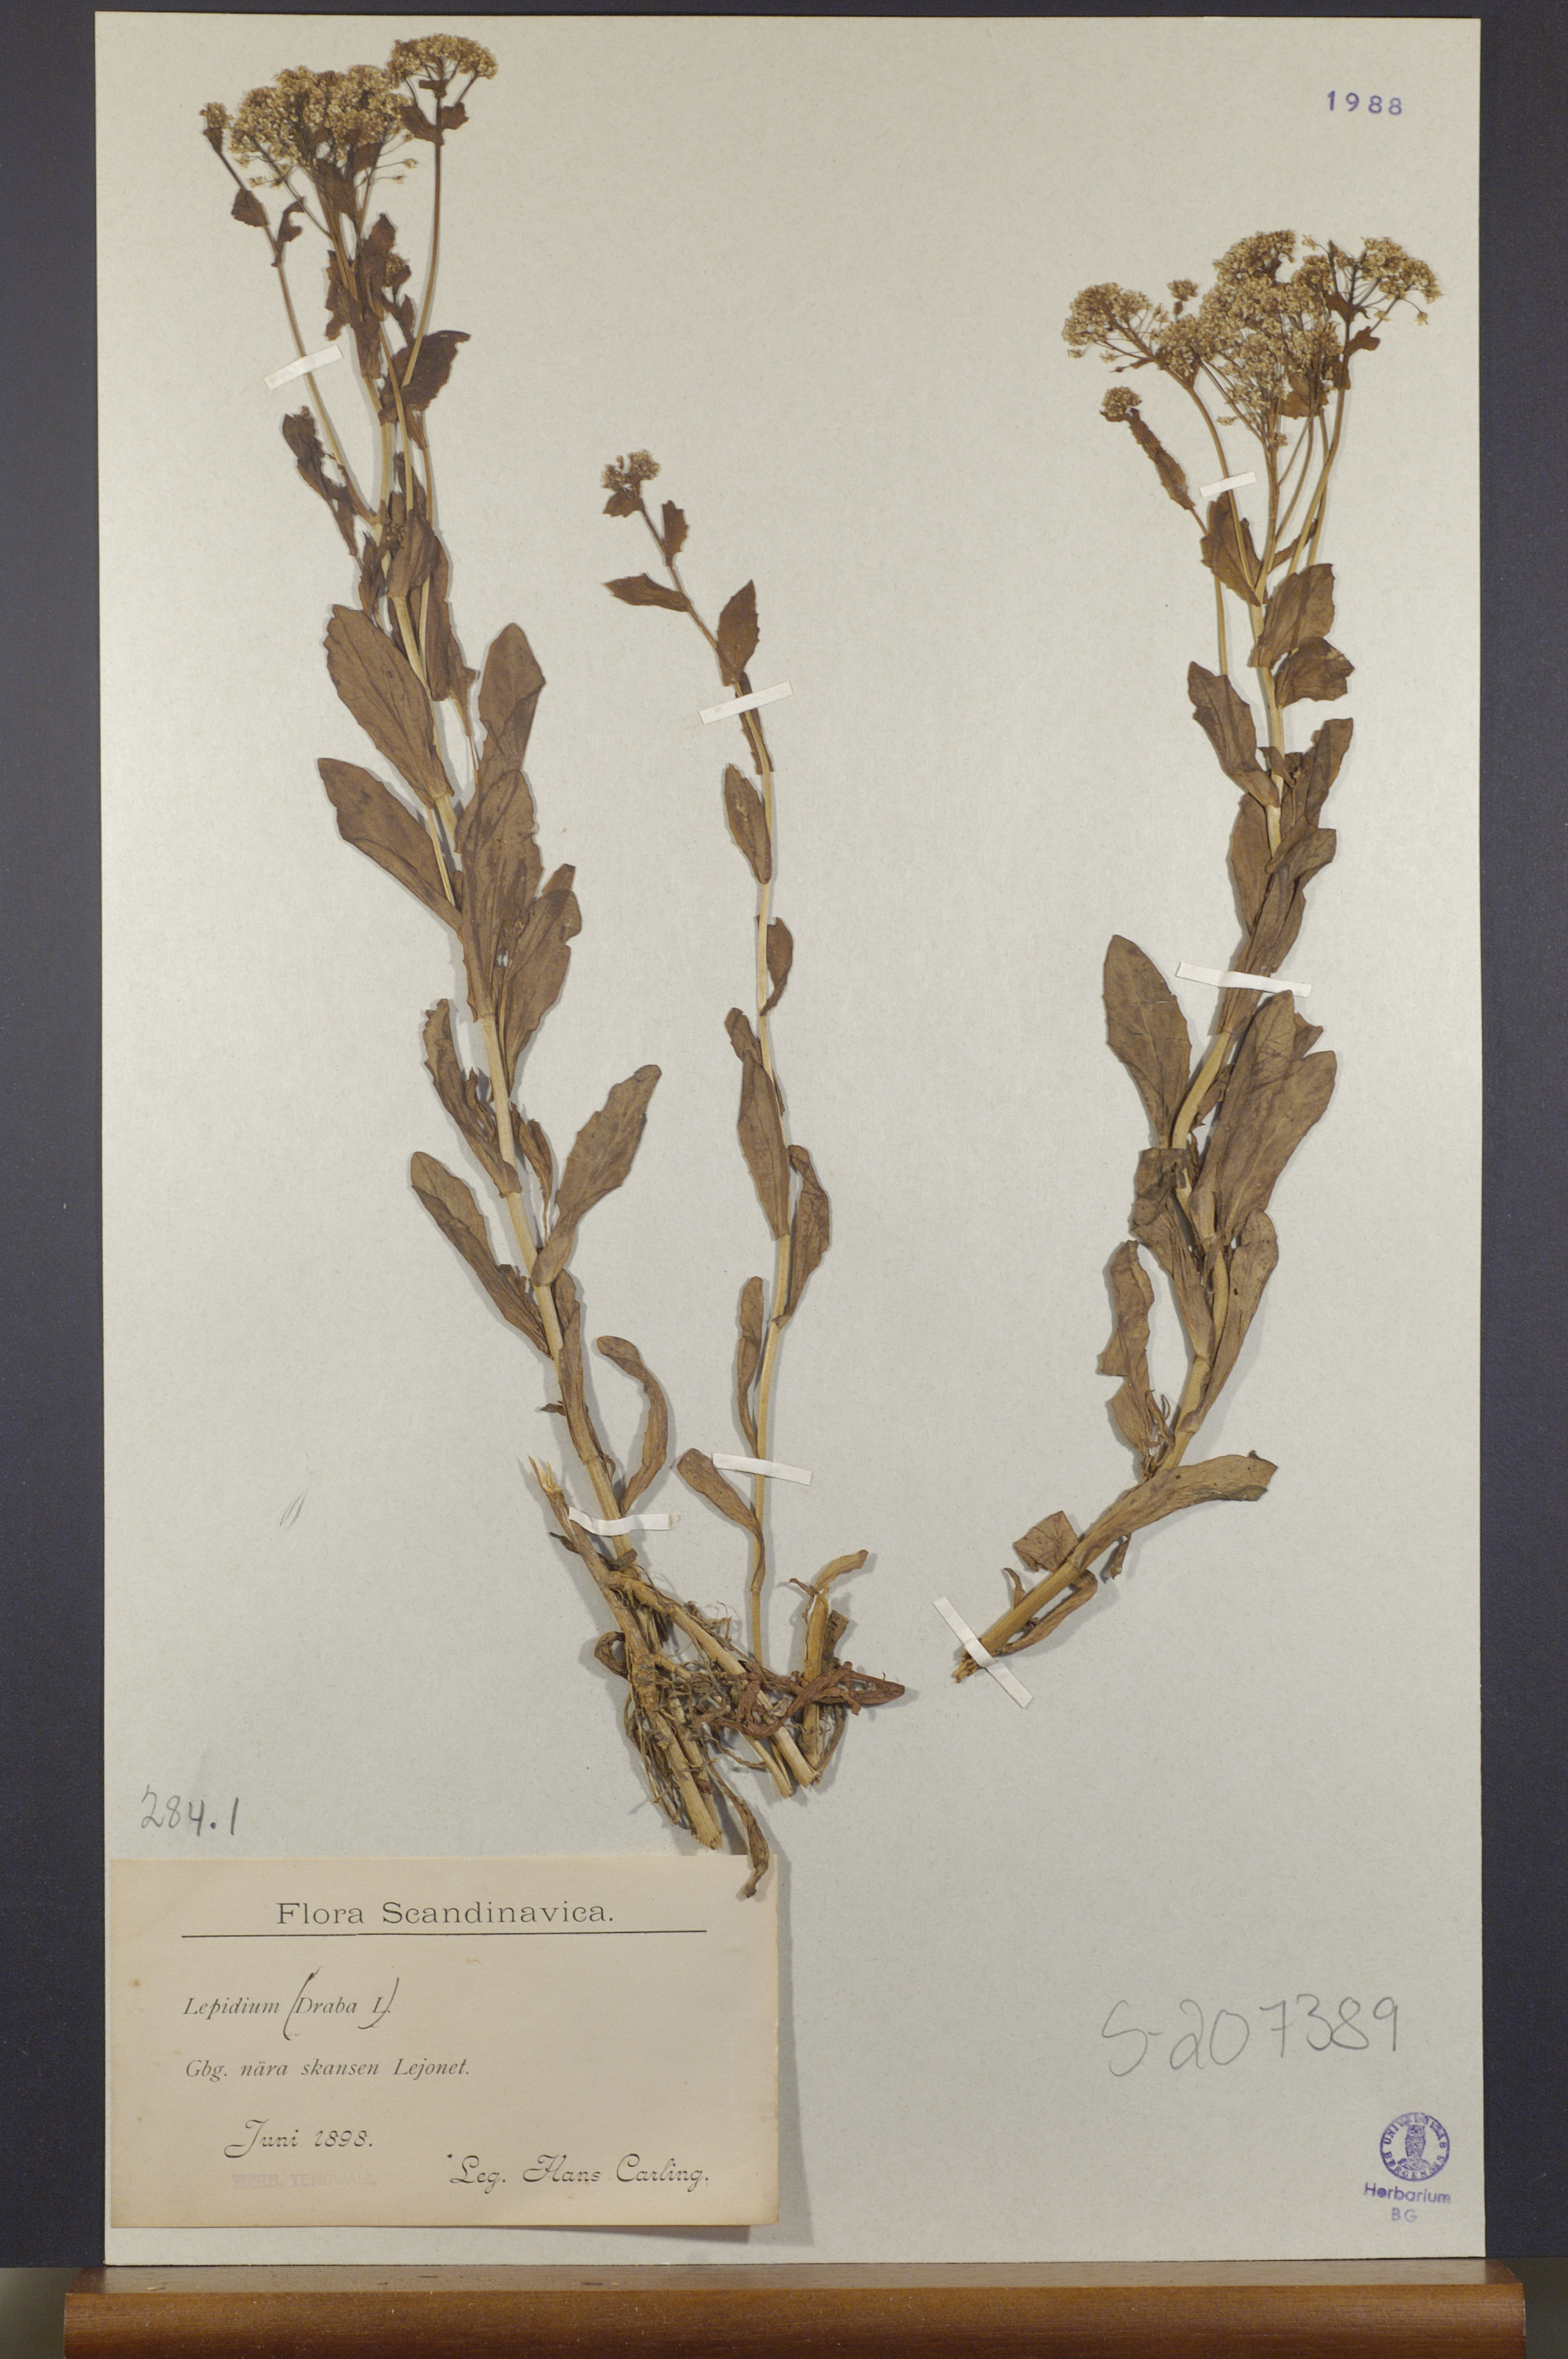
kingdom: Plantae
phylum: Tracheophyta
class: Magnoliopsida
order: Brassicales
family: Brassicaceae
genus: Lepidium
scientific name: Lepidium draba
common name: Hoary cress
